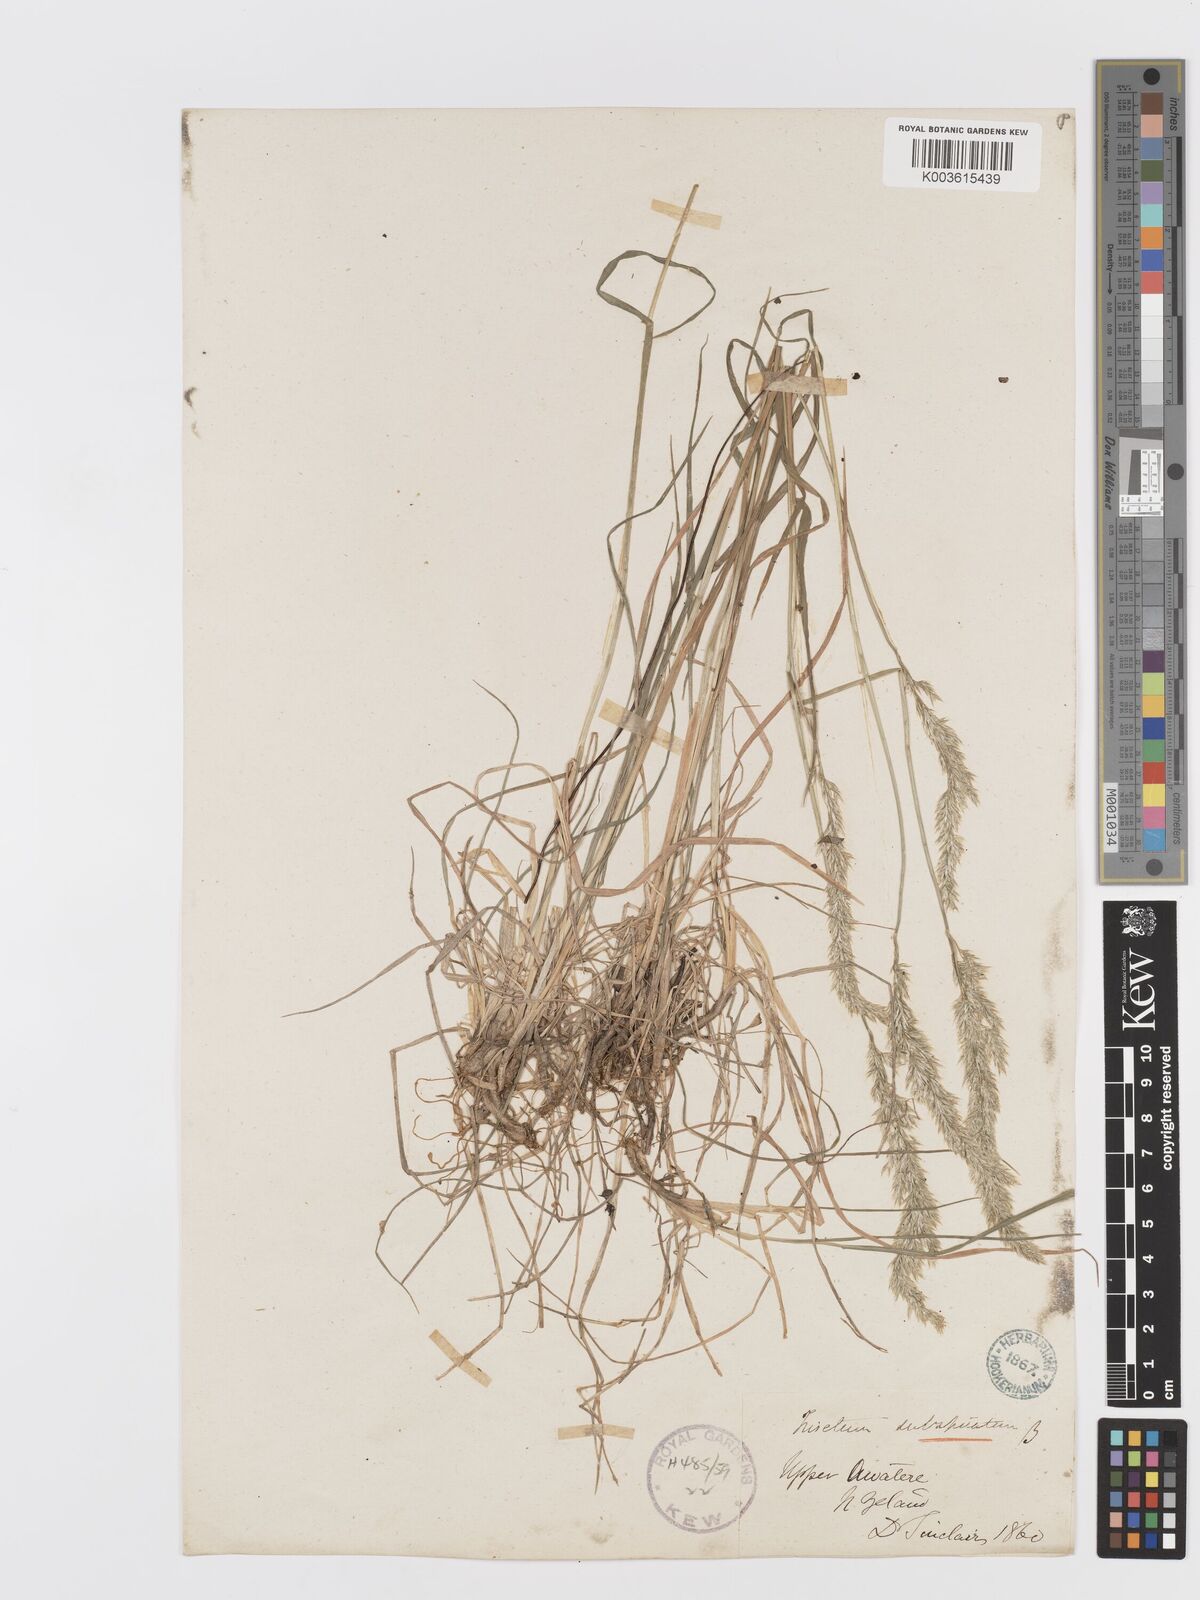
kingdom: Plantae
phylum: Tracheophyta
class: Liliopsida
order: Poales
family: Poaceae
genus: Koeleria
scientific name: Koeleria spicata
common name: Mountain trisetum
